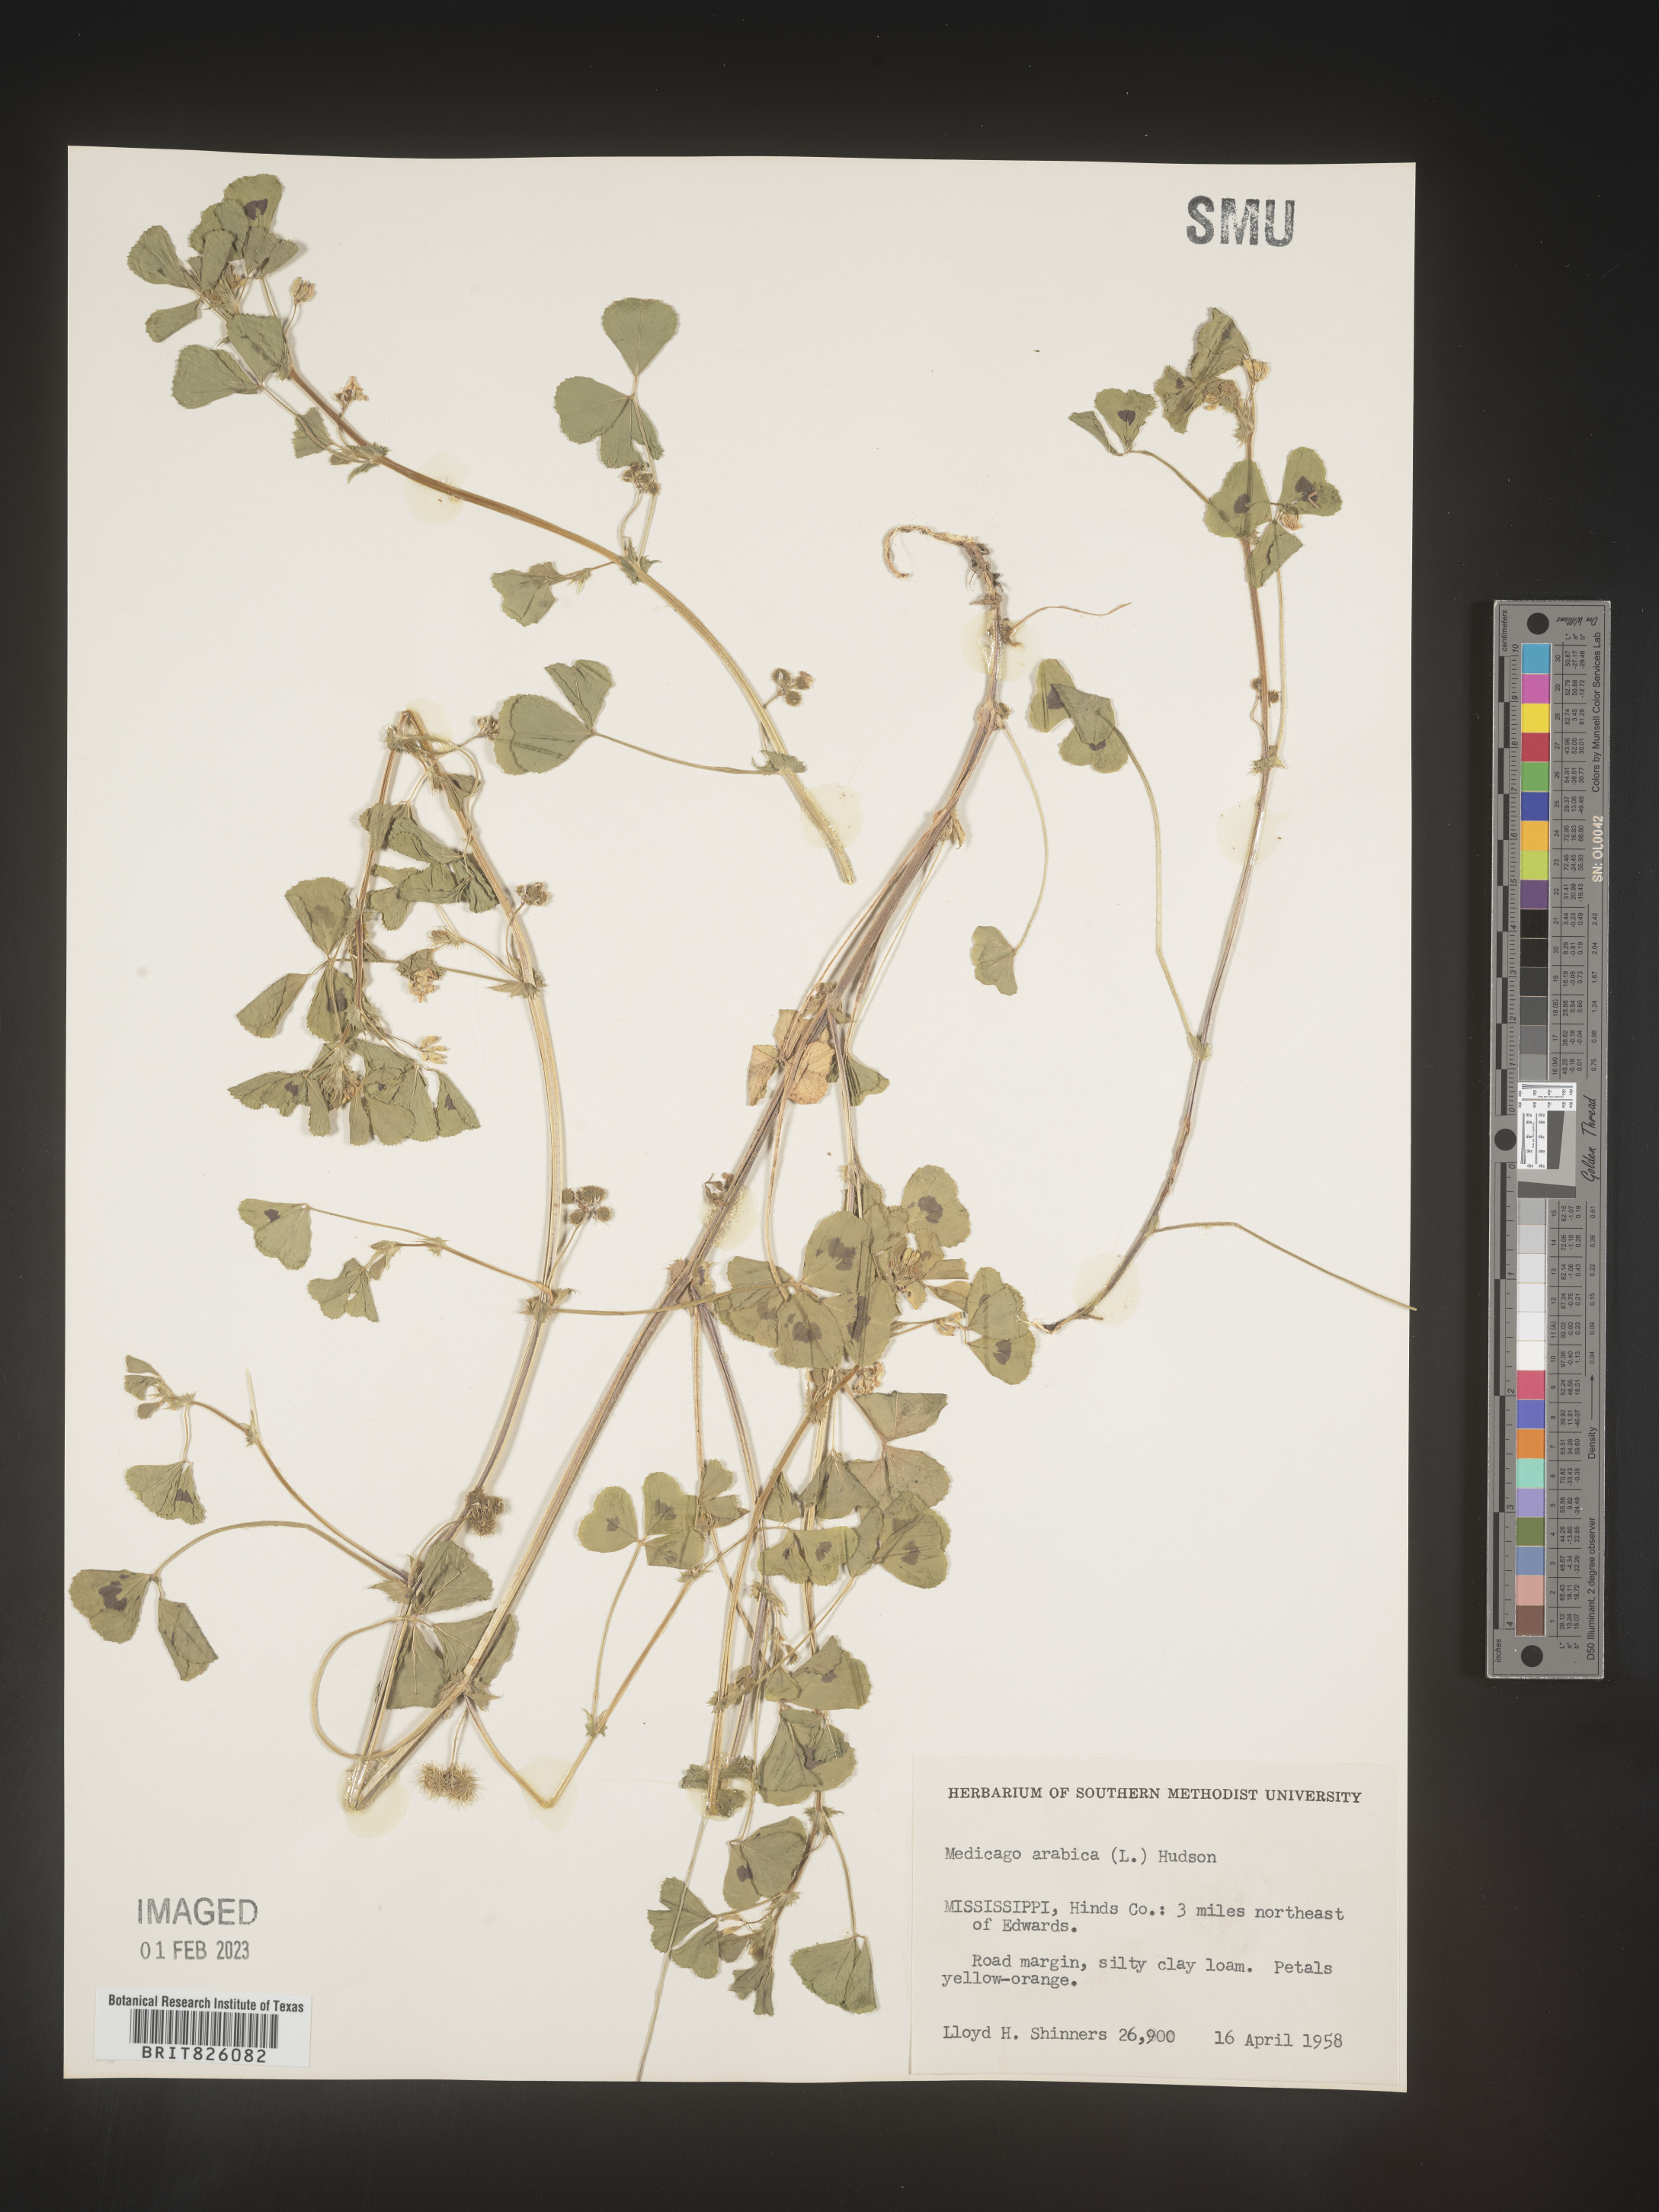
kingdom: Plantae
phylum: Tracheophyta
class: Magnoliopsida
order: Fabales
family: Fabaceae
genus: Medicago
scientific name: Medicago arabica
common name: Spotted medick
